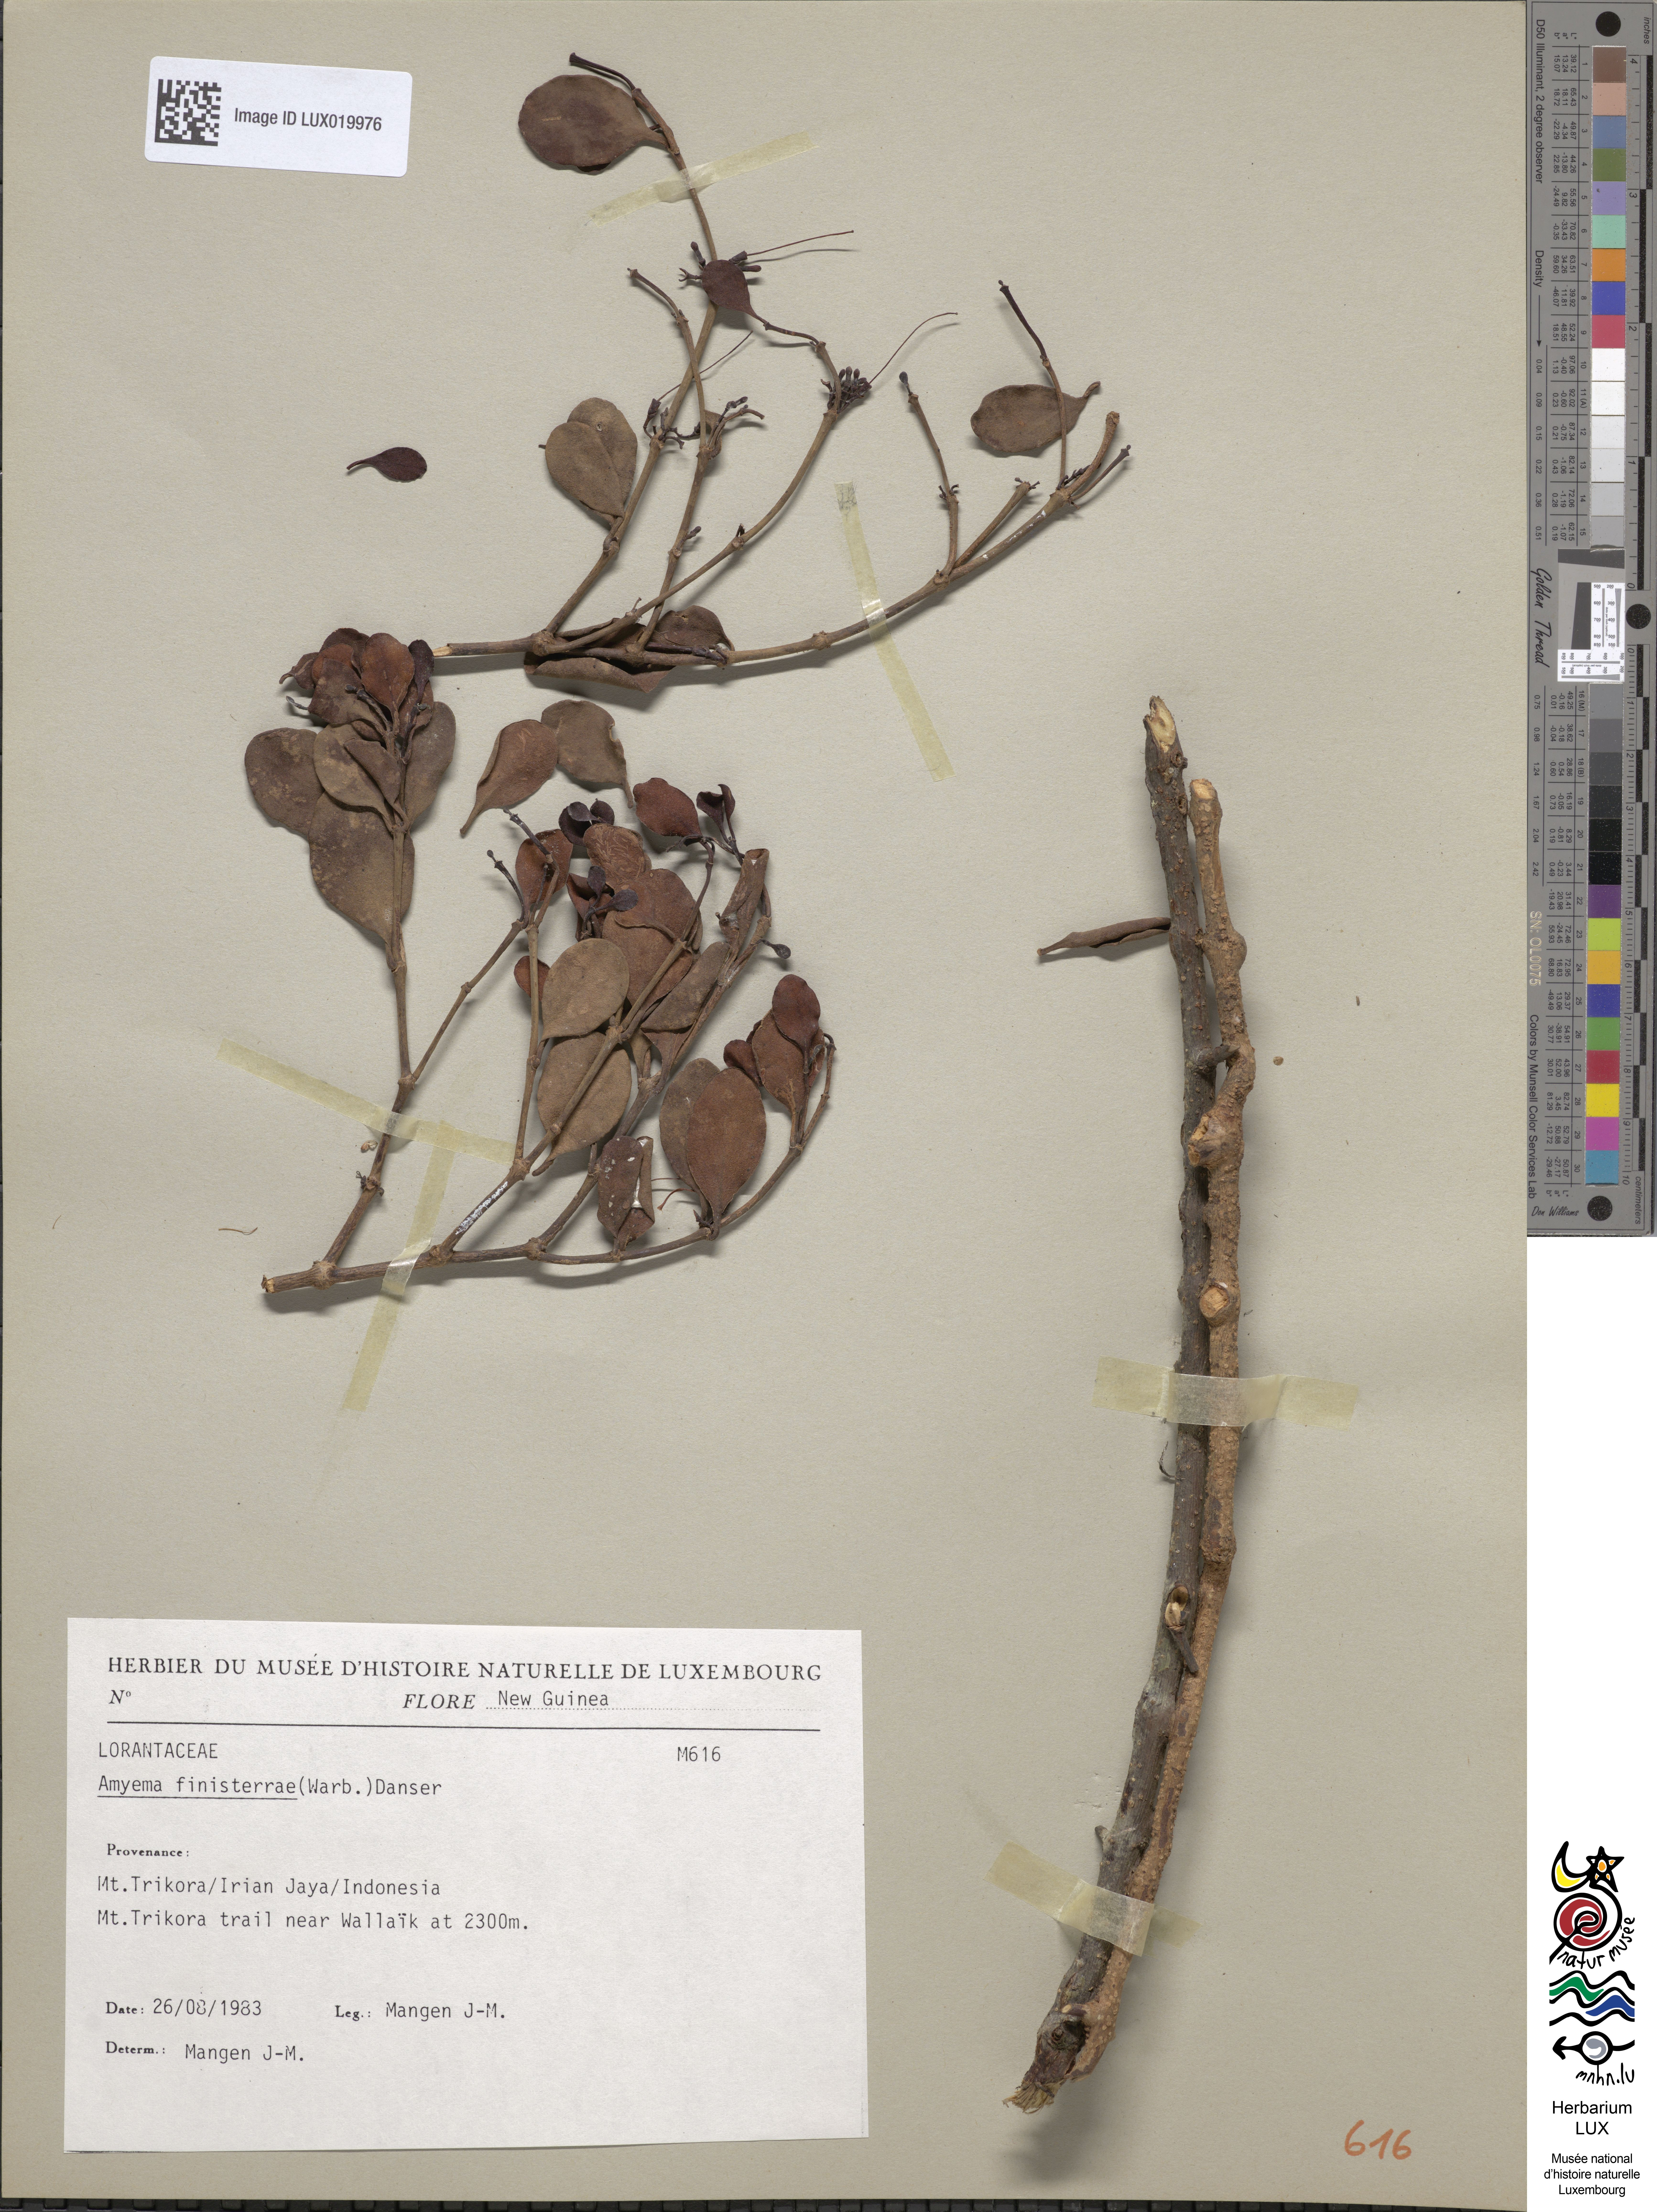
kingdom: Plantae
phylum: Tracheophyta
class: Magnoliopsida
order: Santalales
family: Loranthaceae
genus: Amyema
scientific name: Amyema finisterrae
